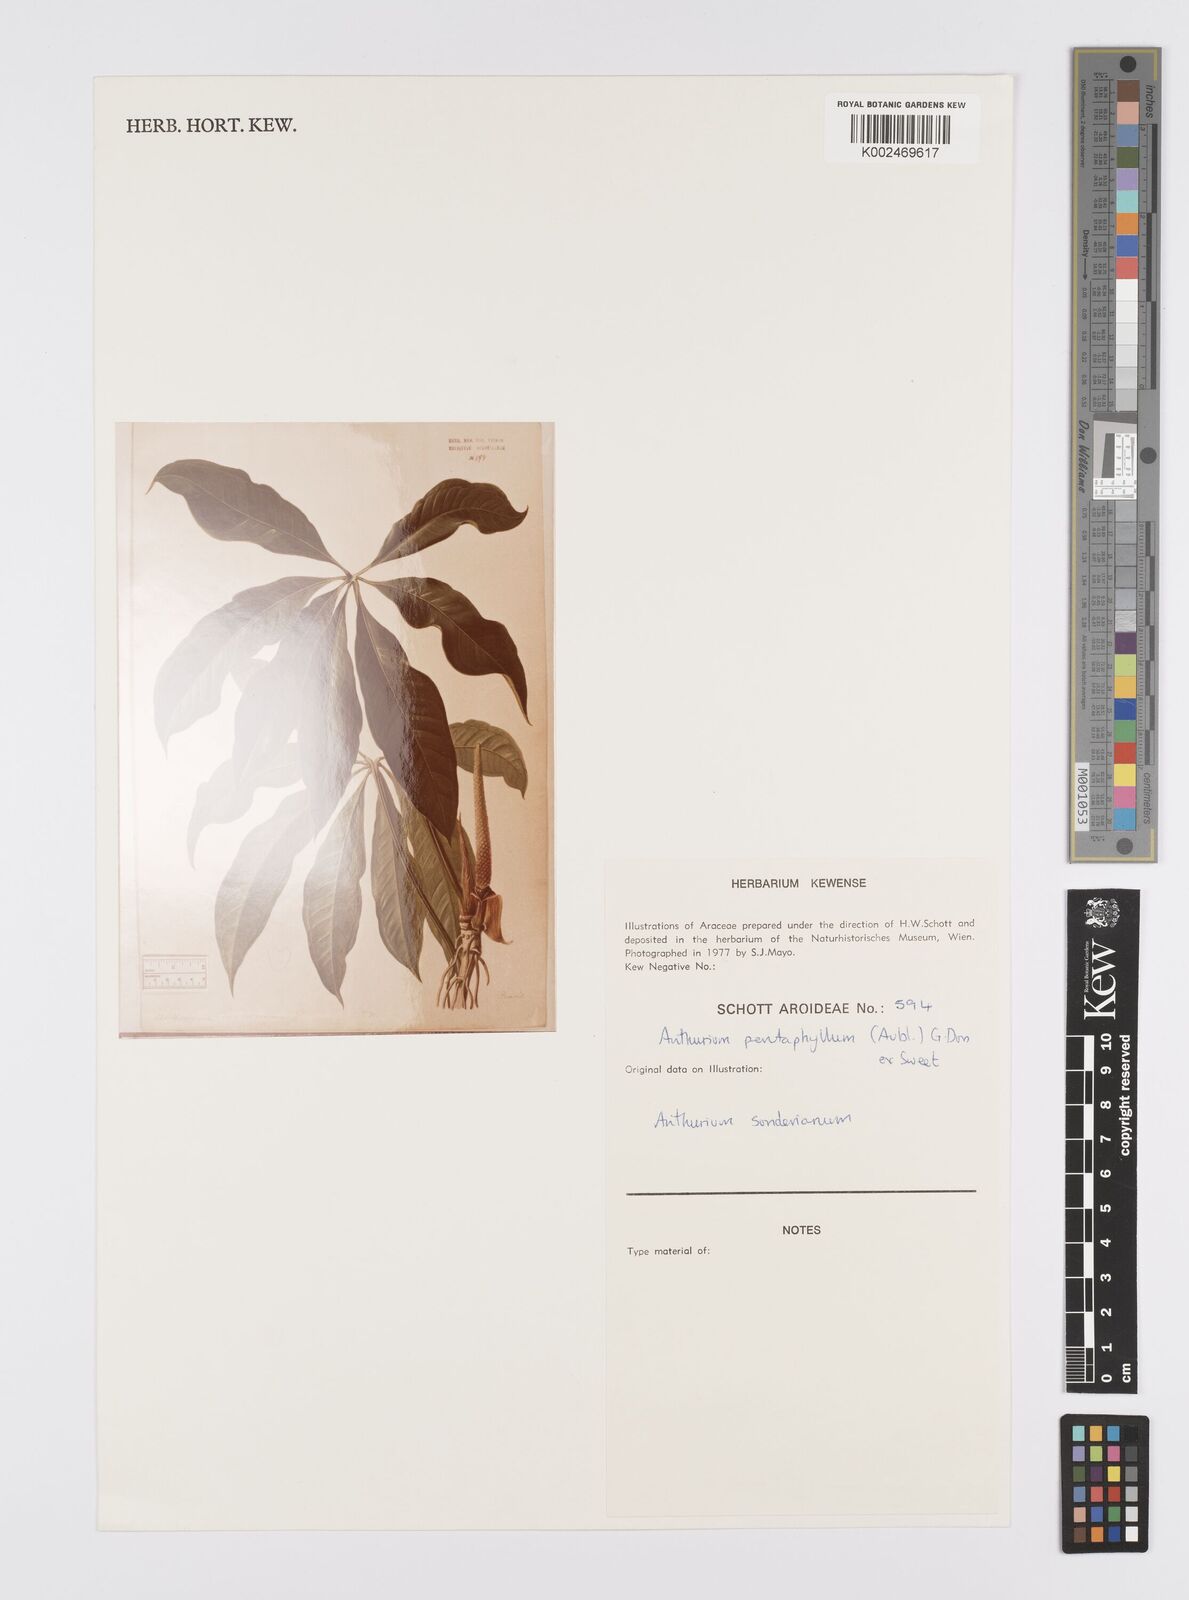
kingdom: Plantae
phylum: Tracheophyta
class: Liliopsida
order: Alismatales
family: Araceae
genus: Anthurium
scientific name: Anthurium pentaphyllum
